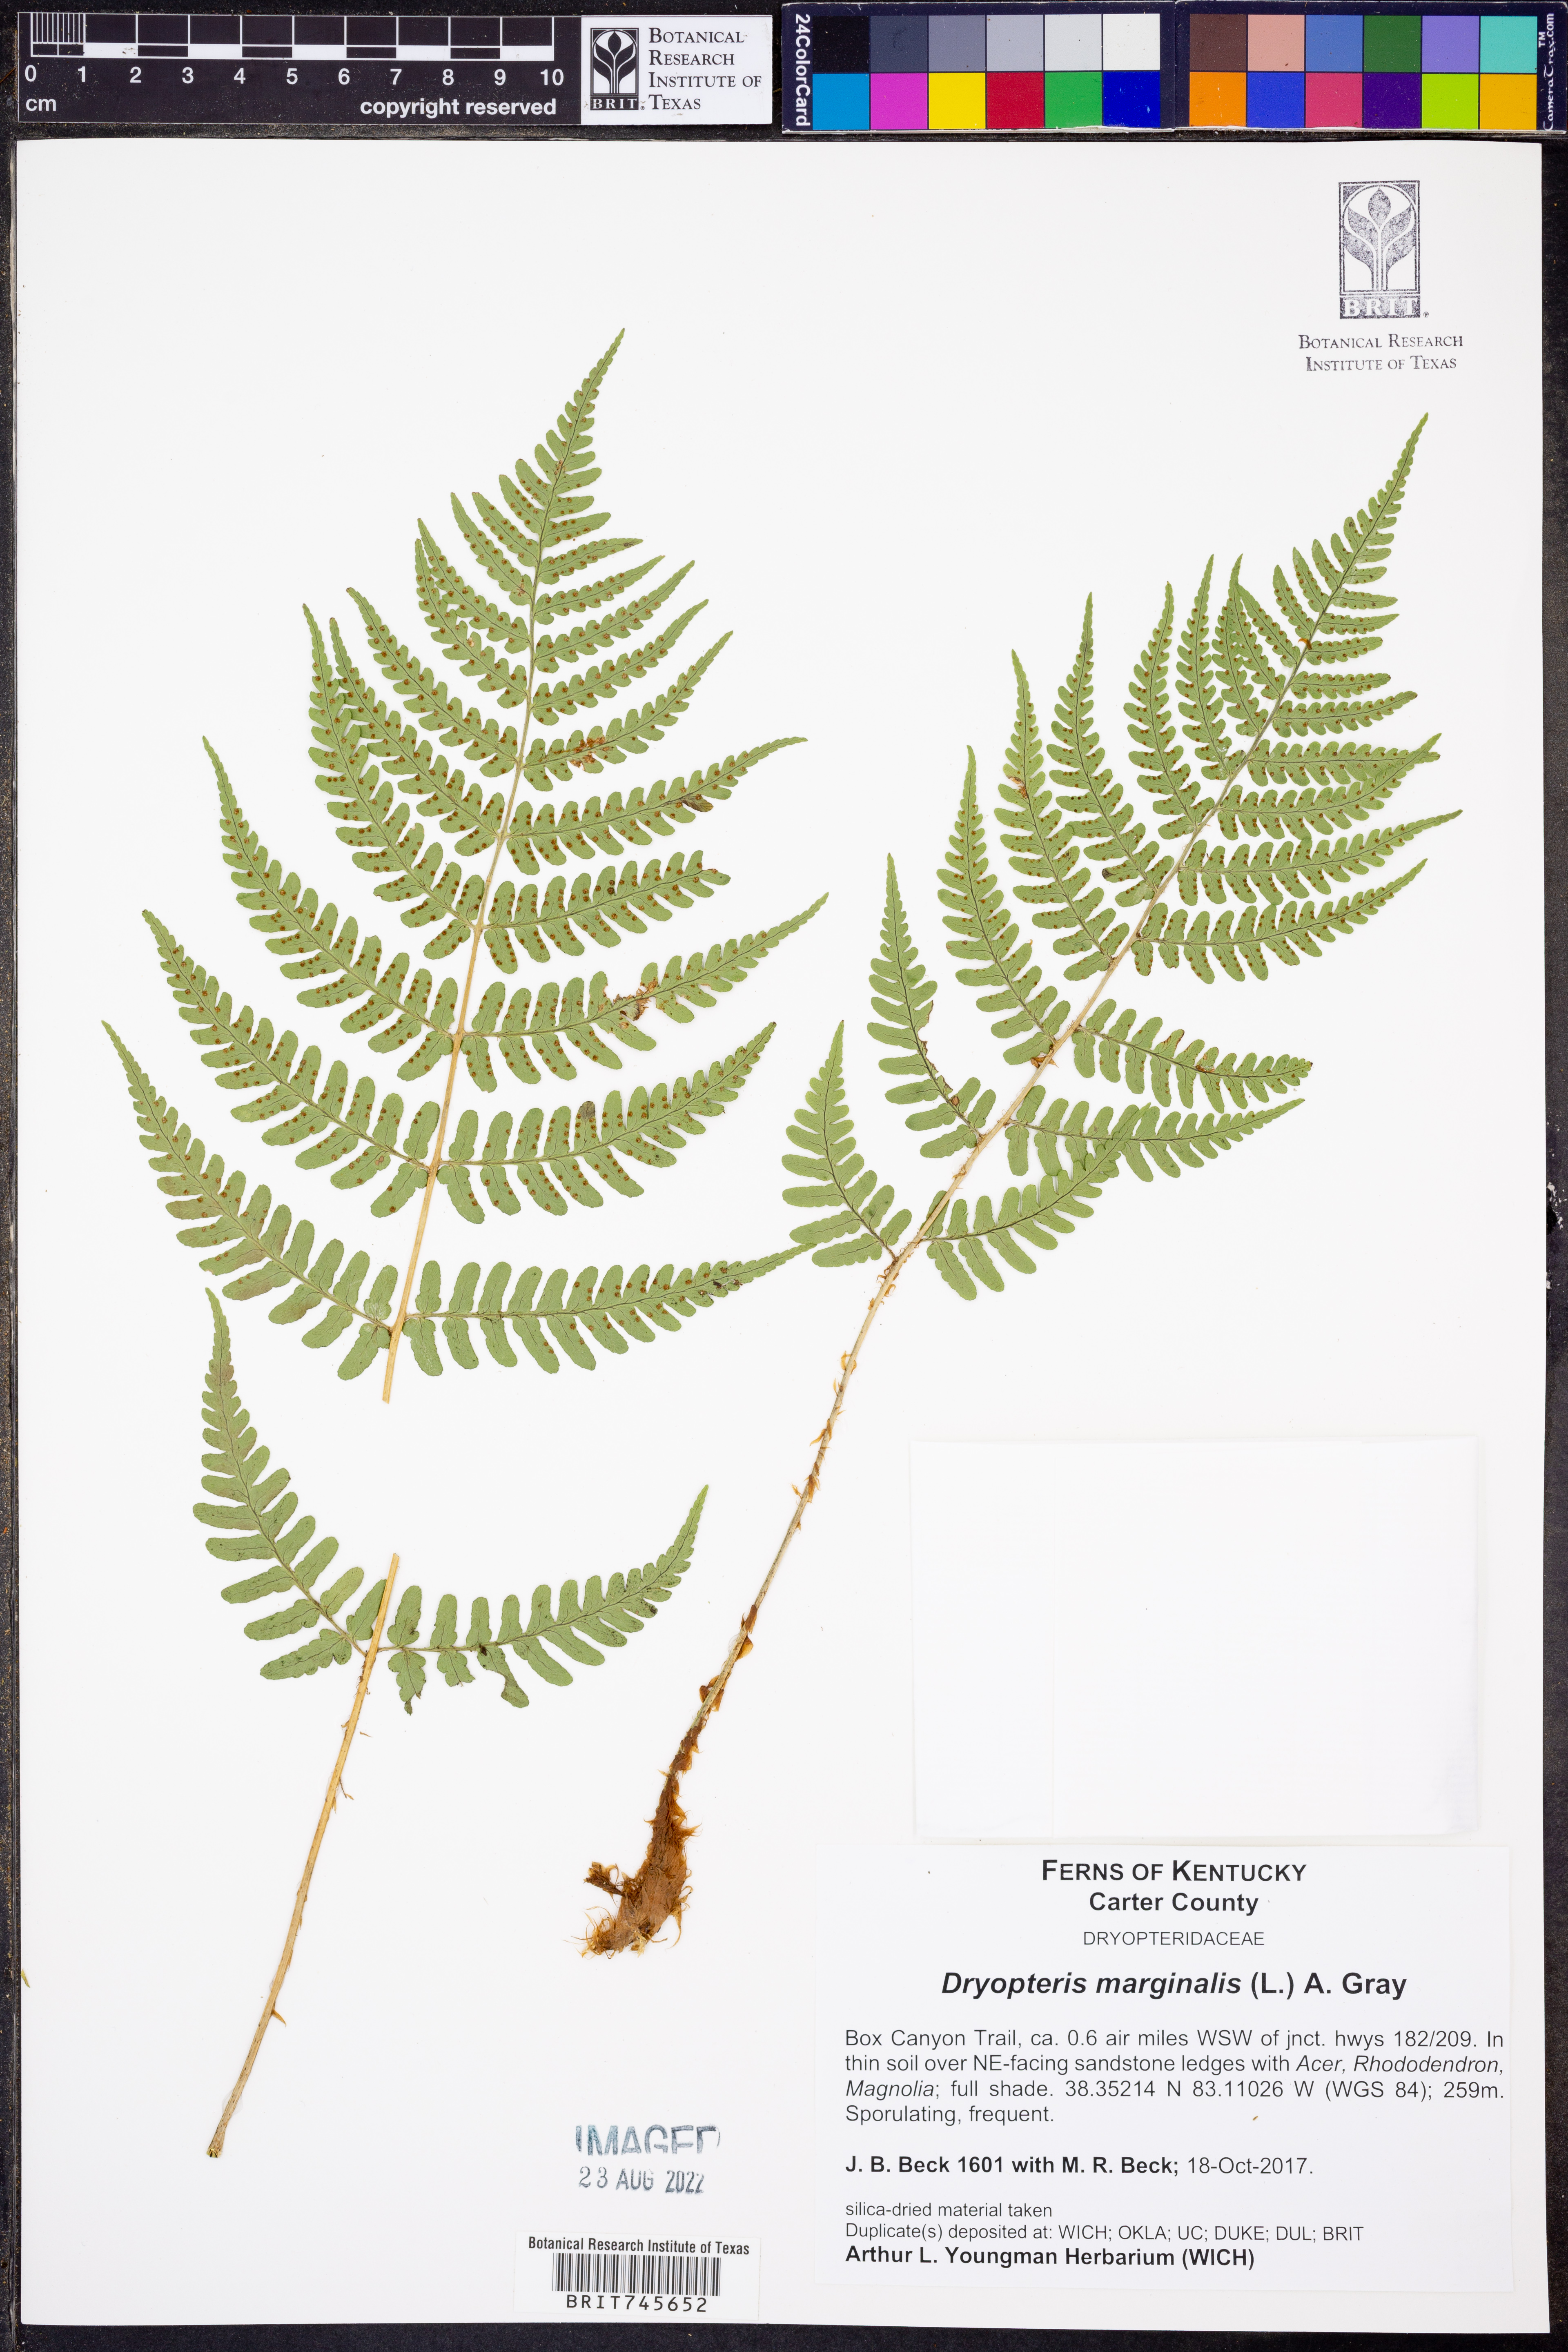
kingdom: Plantae
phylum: Tracheophyta
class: Polypodiopsida
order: Polypodiales
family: Dryopteridaceae
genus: Dryopteris
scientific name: Dryopteris marginalis
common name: Marginal wood fern
